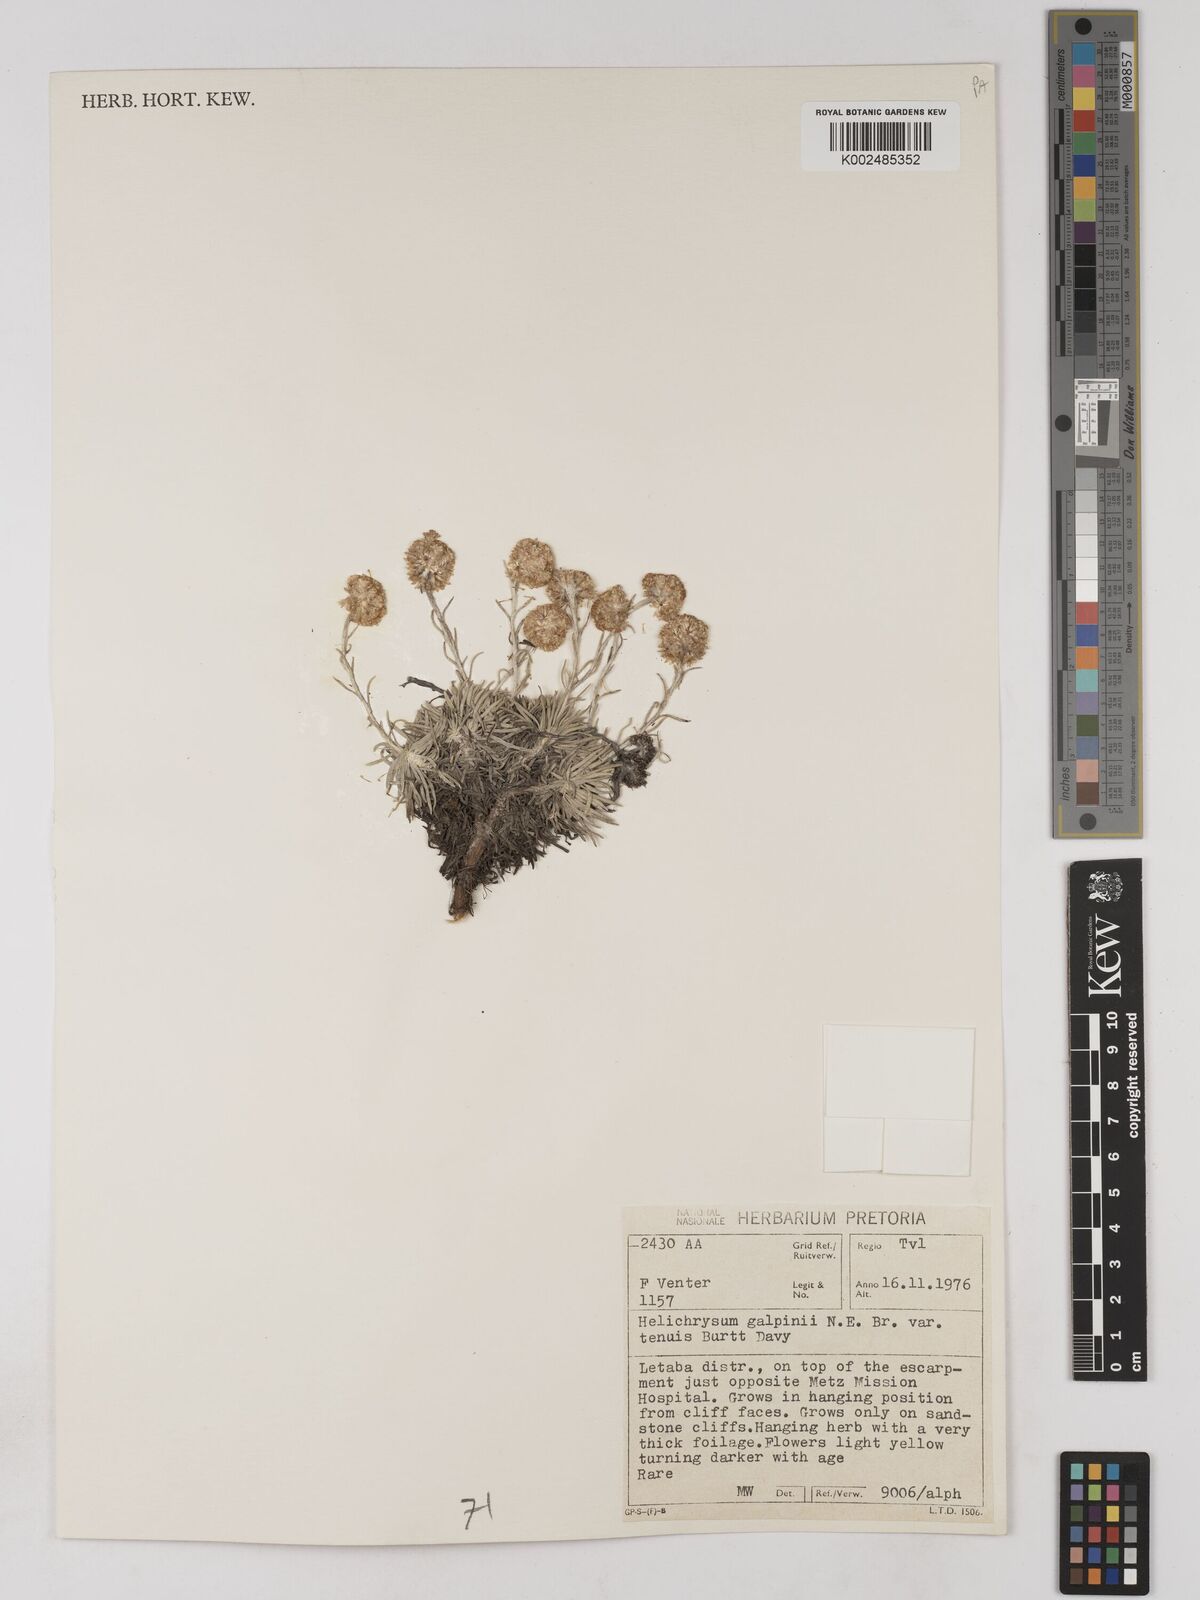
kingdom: Plantae
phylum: Tracheophyta
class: Magnoliopsida
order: Asterales
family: Asteraceae
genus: Helichrysum
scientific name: Helichrysum acutatum
